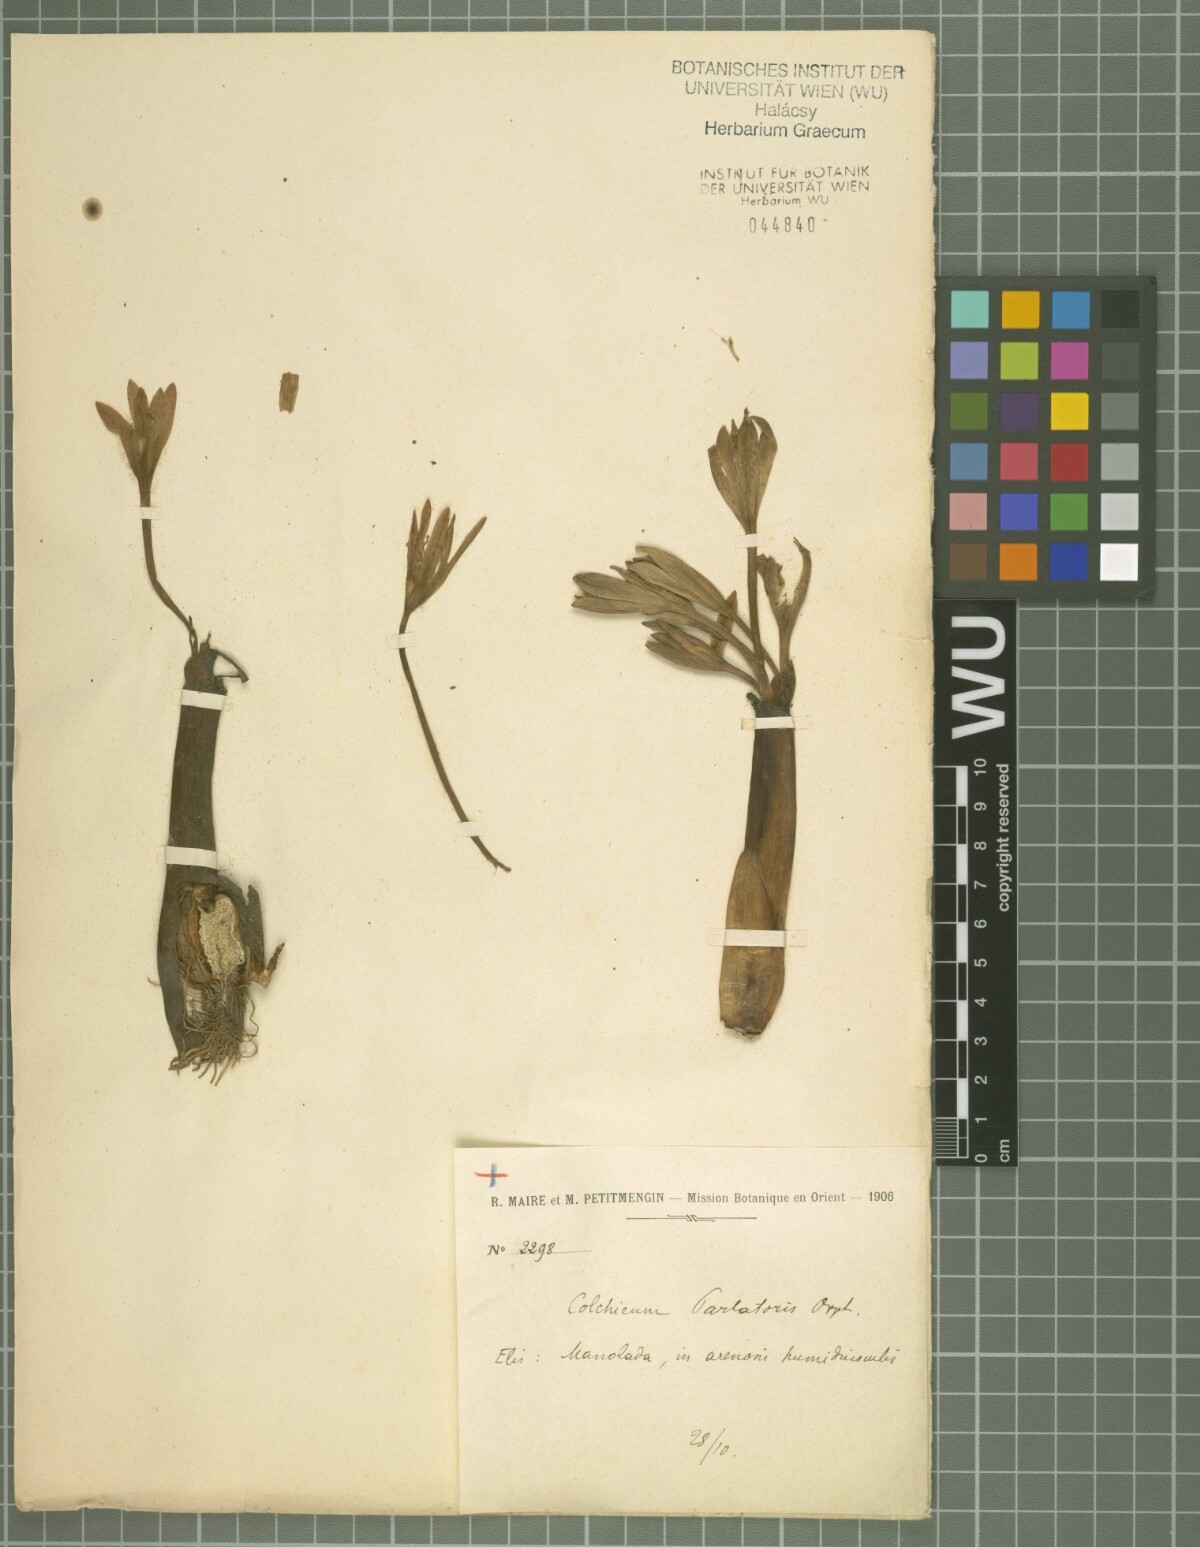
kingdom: Plantae
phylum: Tracheophyta
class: Liliopsida
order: Liliales
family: Colchicaceae
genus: Colchicum
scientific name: Colchicum haynaldii
